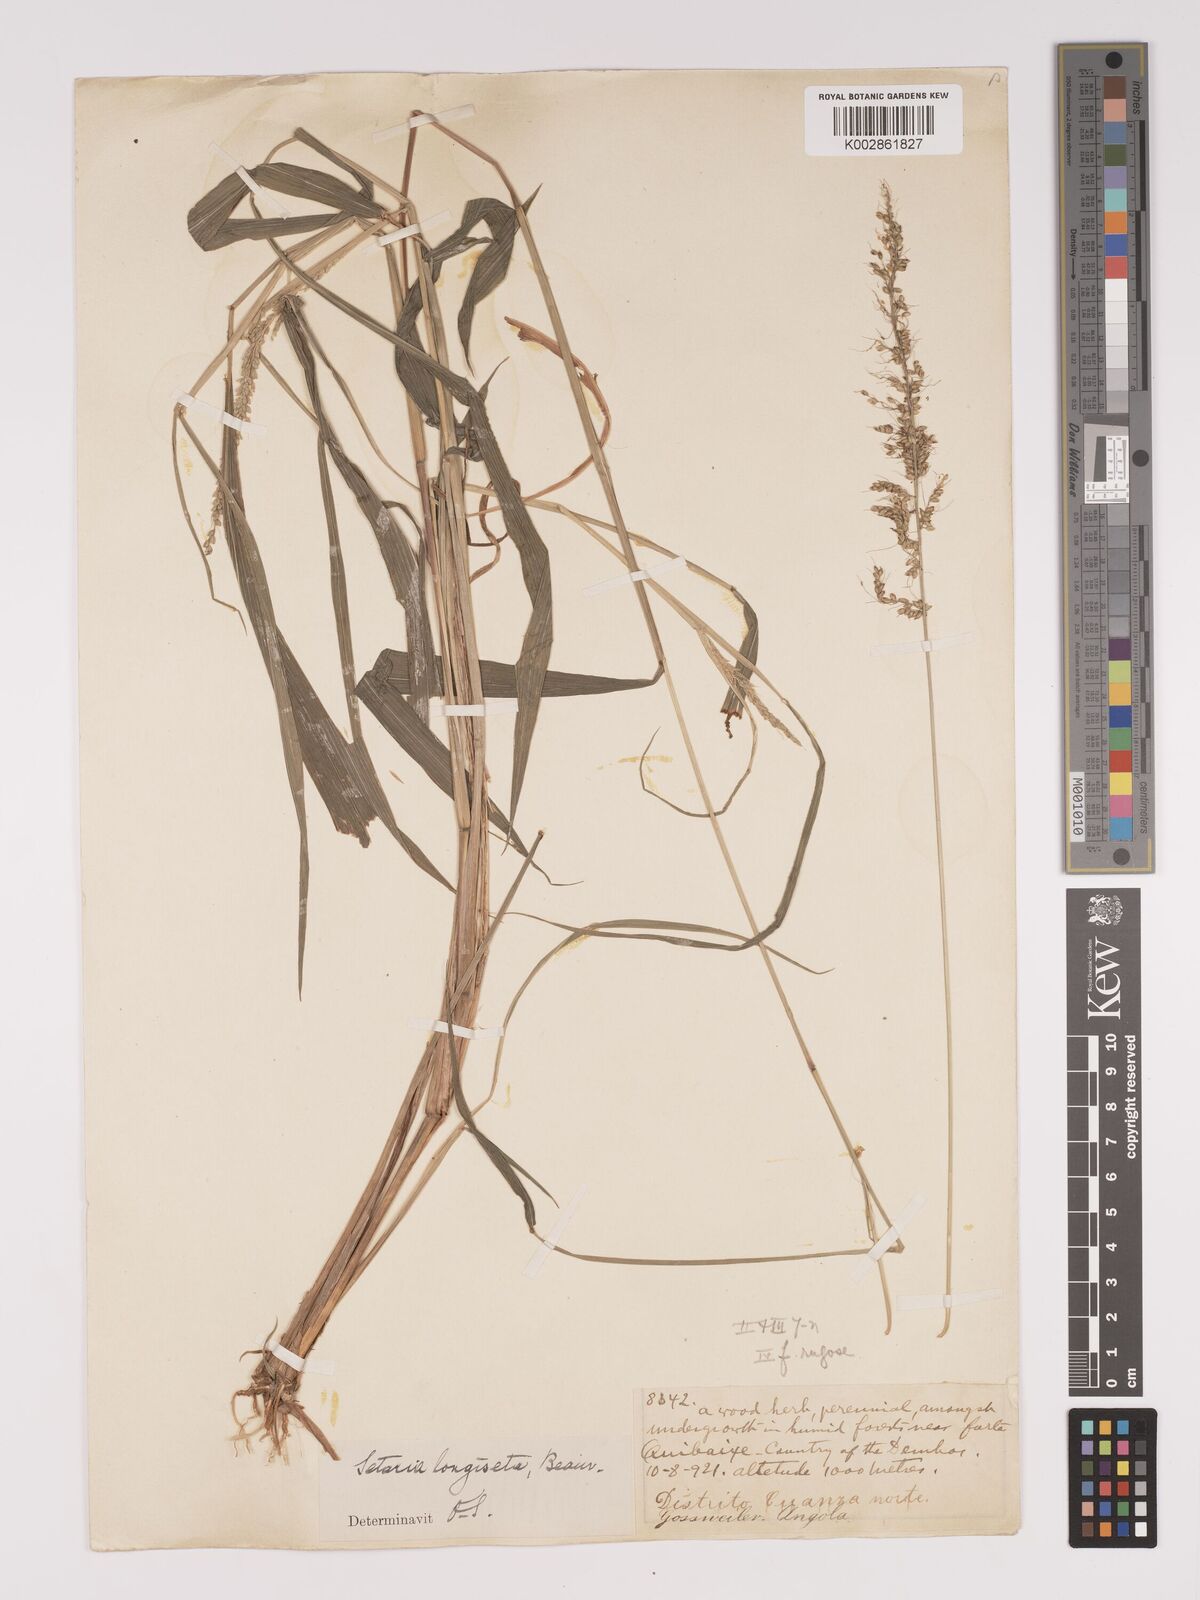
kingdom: Plantae
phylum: Tracheophyta
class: Liliopsida
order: Poales
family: Poaceae
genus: Setaria
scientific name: Setaria barbata
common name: East indian bristlegrass
